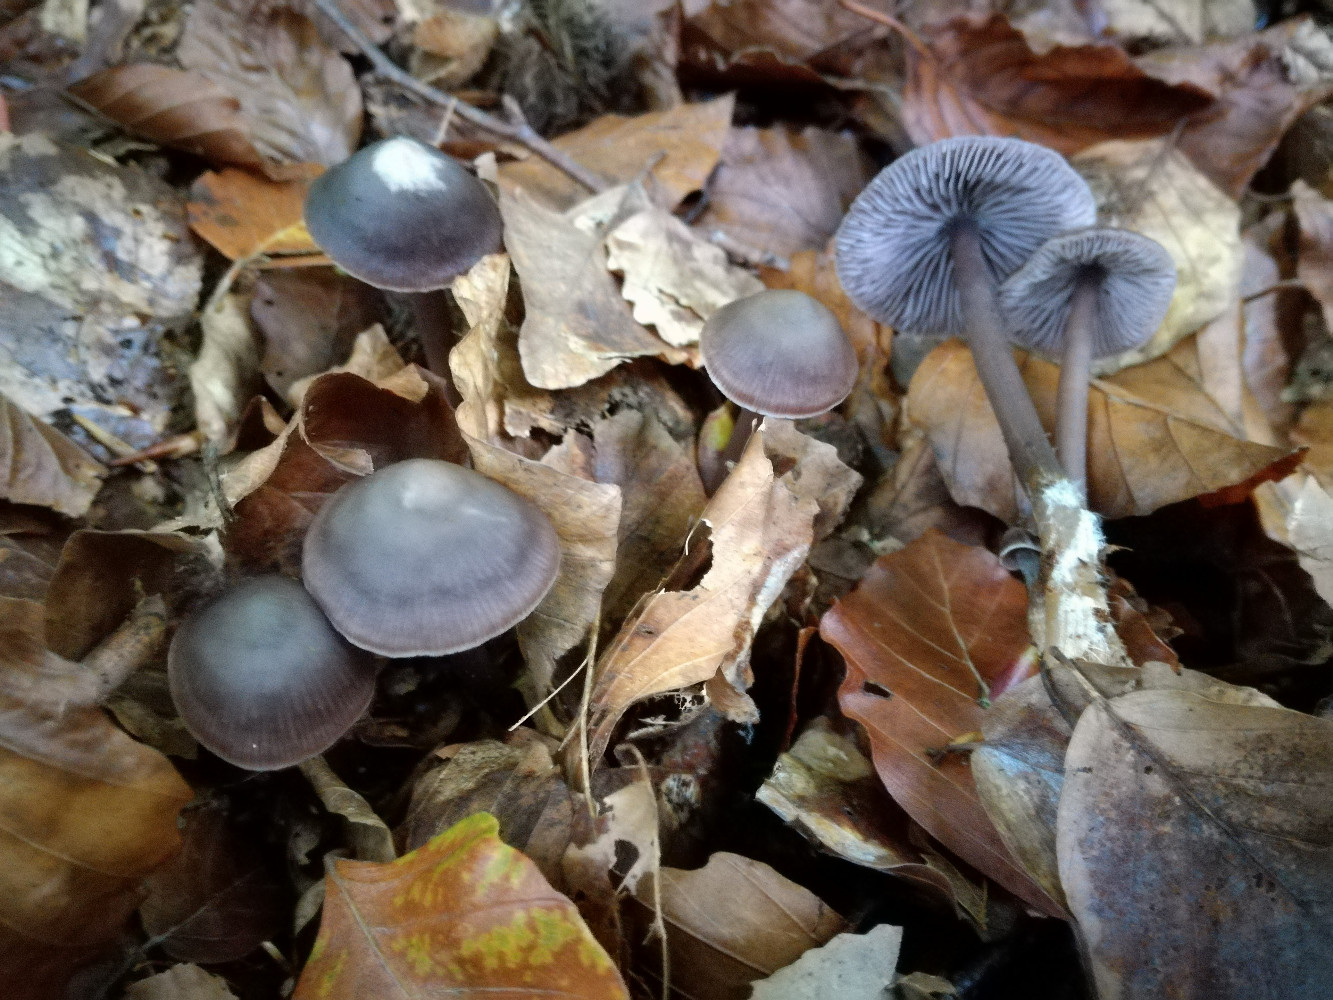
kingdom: Fungi
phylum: Basidiomycota
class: Agaricomycetes
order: Agaricales
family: Mycenaceae
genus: Prunulus
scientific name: Prunulus diosmus
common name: tobaks-huesvamp
